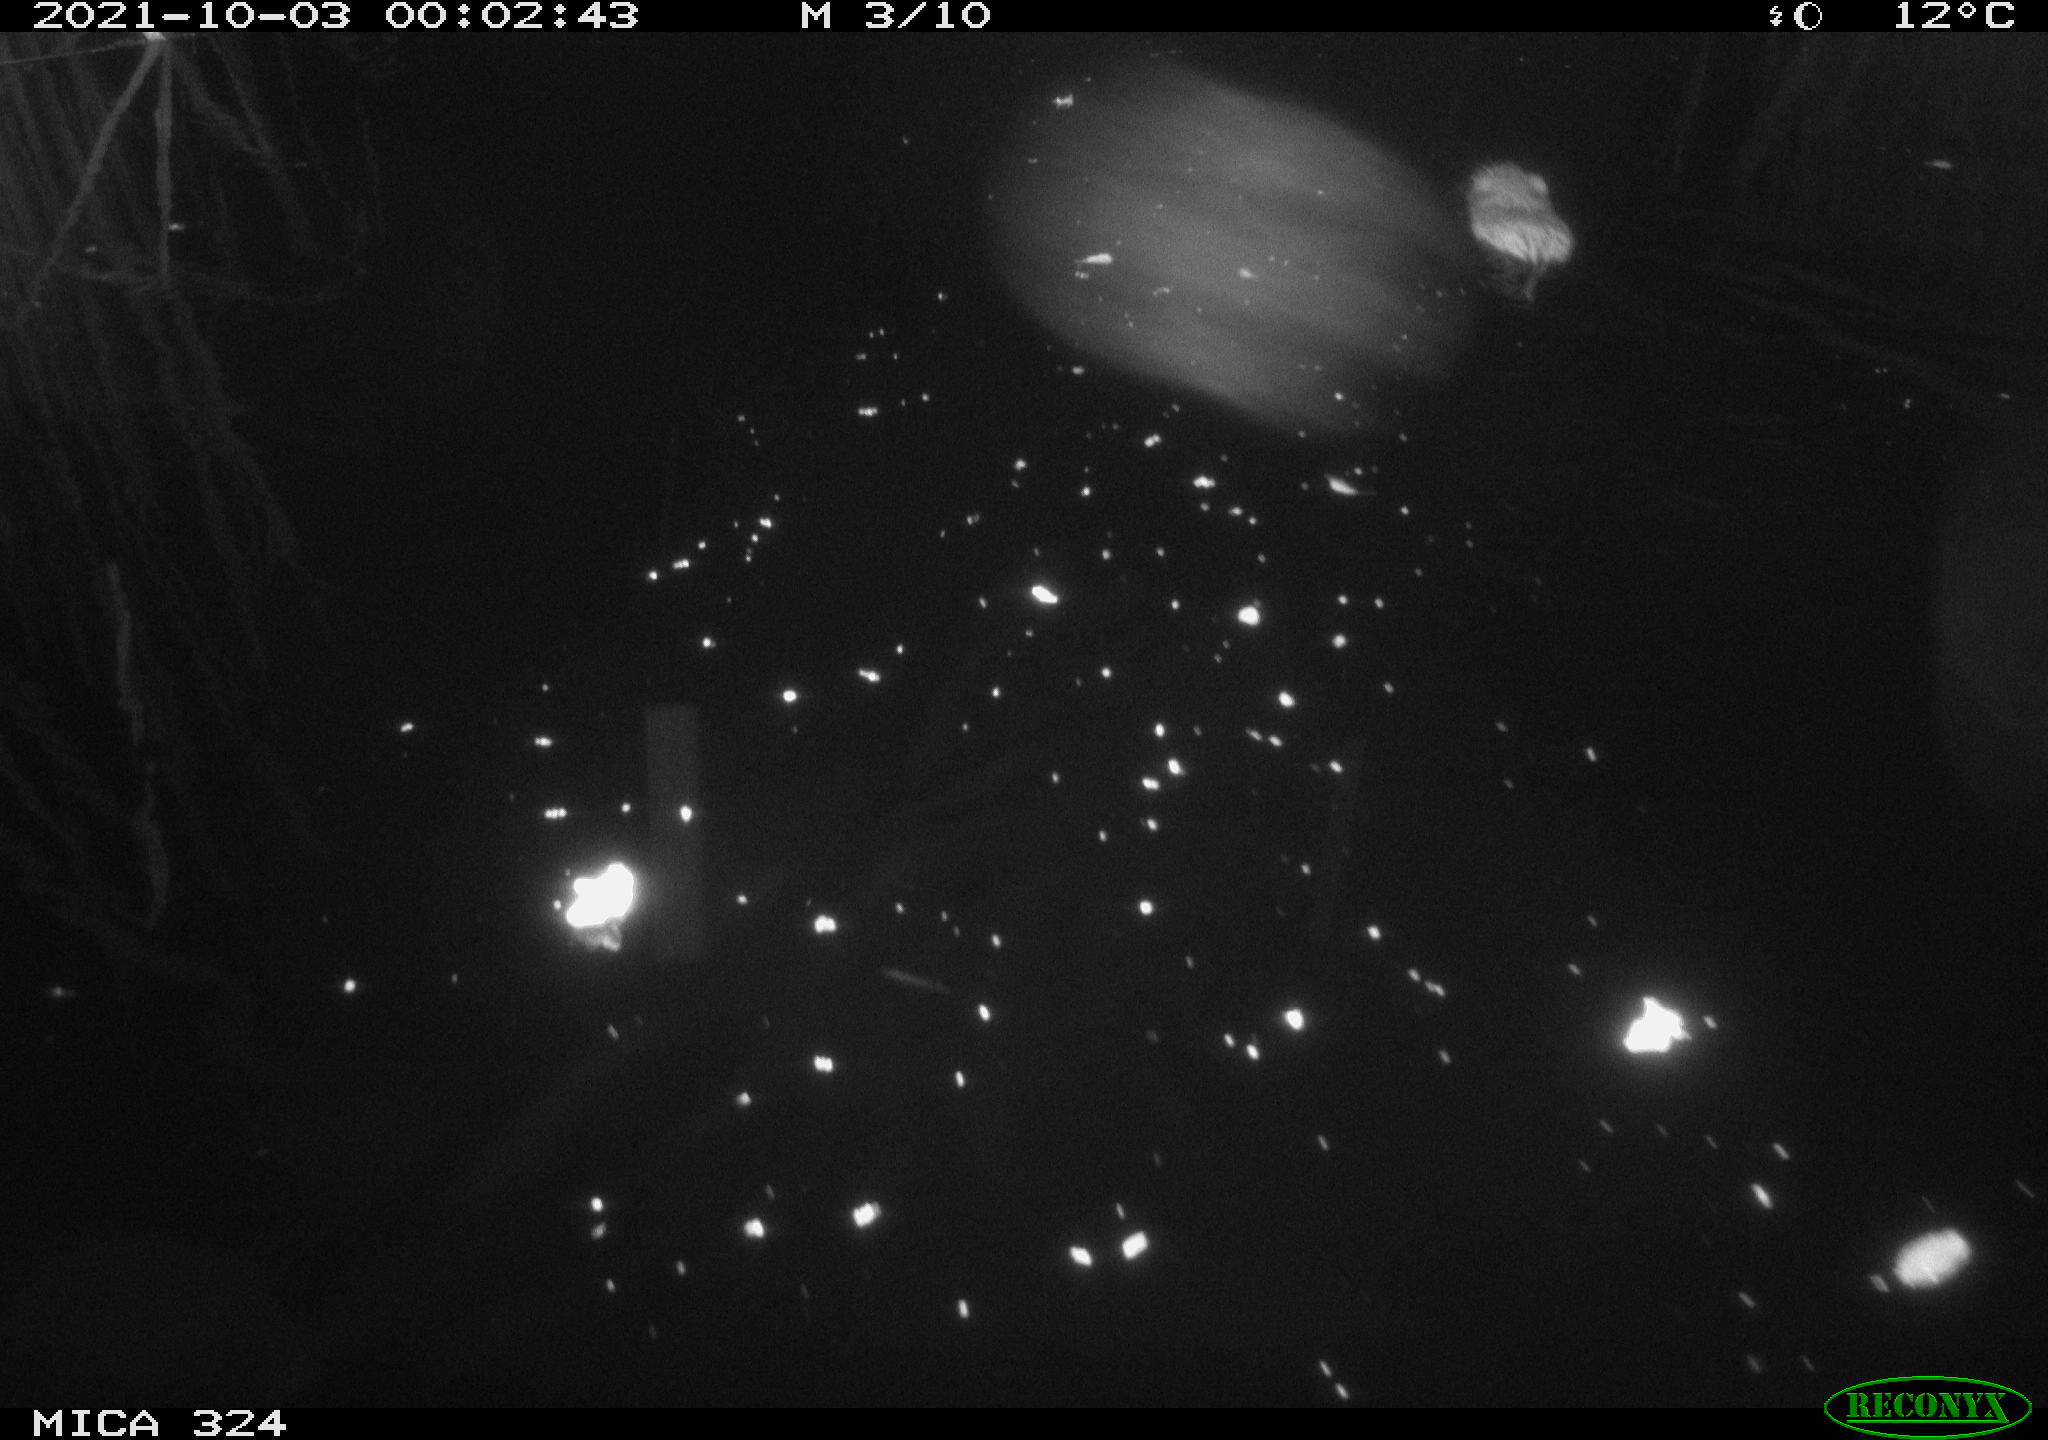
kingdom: Animalia
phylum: Chordata
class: Mammalia
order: Rodentia
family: Cricetidae
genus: Ondatra
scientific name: Ondatra zibethicus
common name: Muskrat
